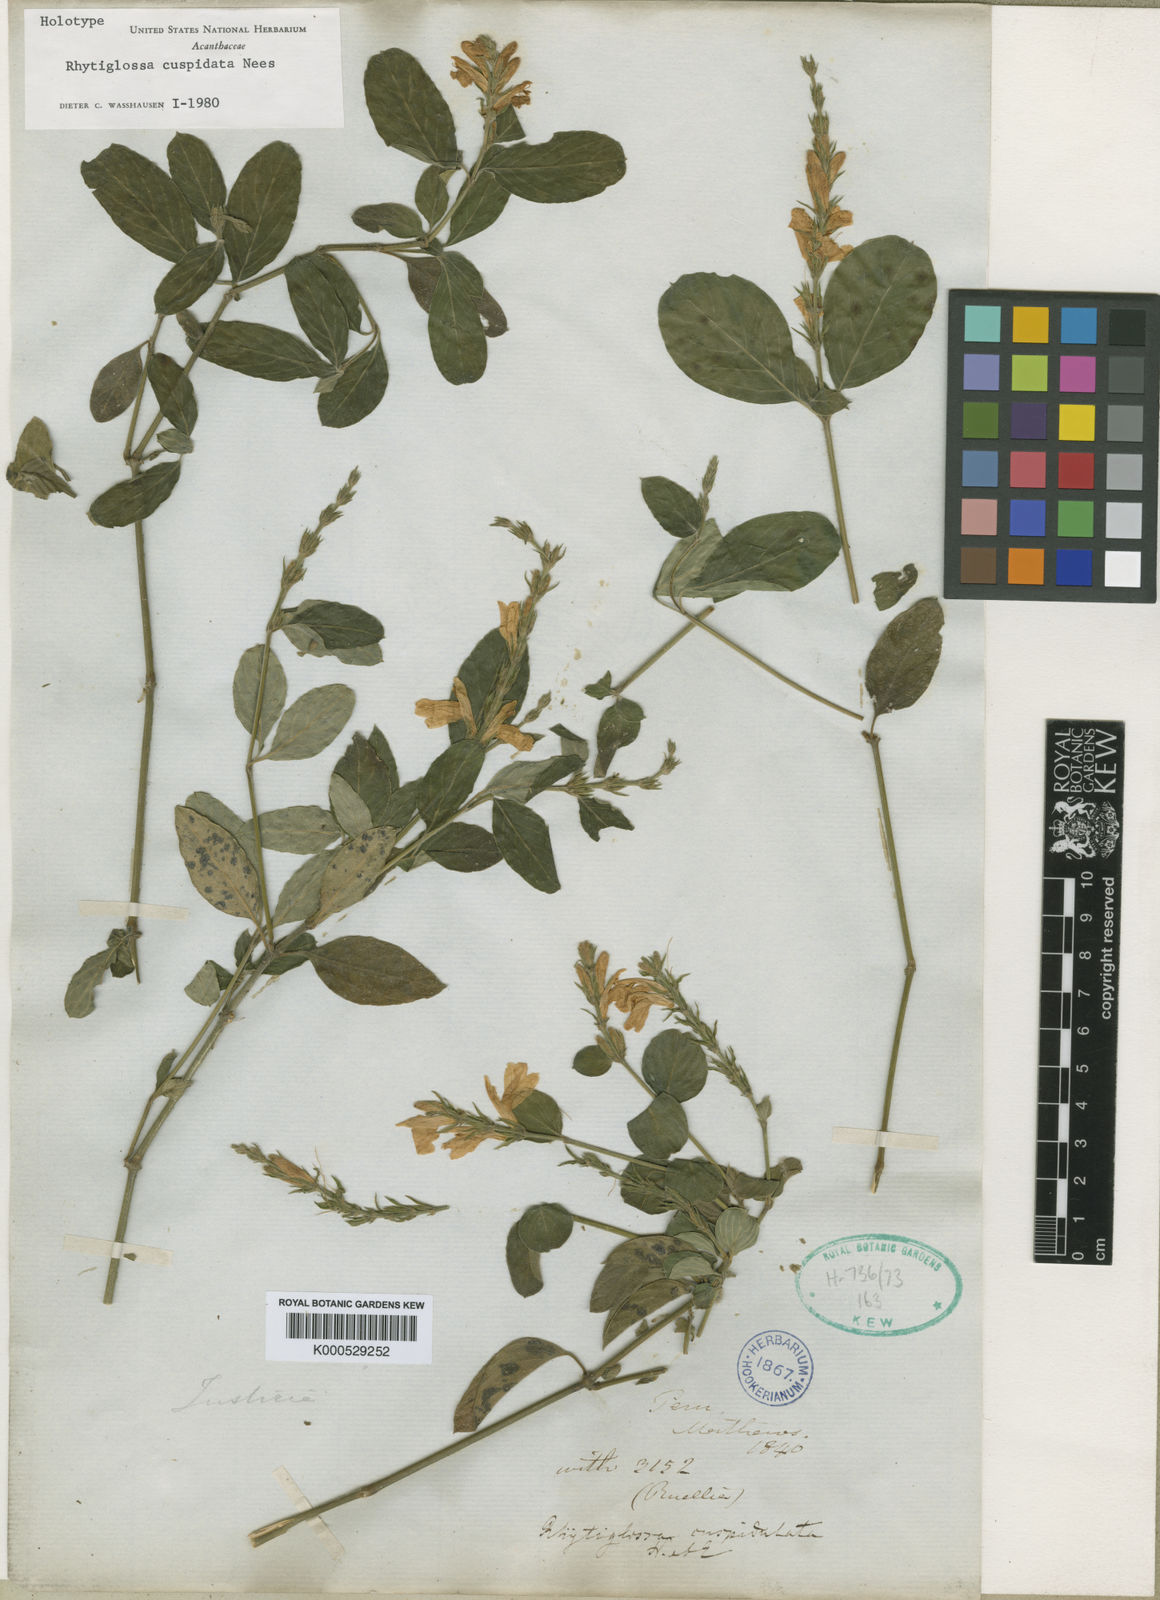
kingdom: Plantae
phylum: Tracheophyta
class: Magnoliopsida
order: Lamiales
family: Acanthaceae
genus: Justicia
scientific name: Justicia cuspidulata
